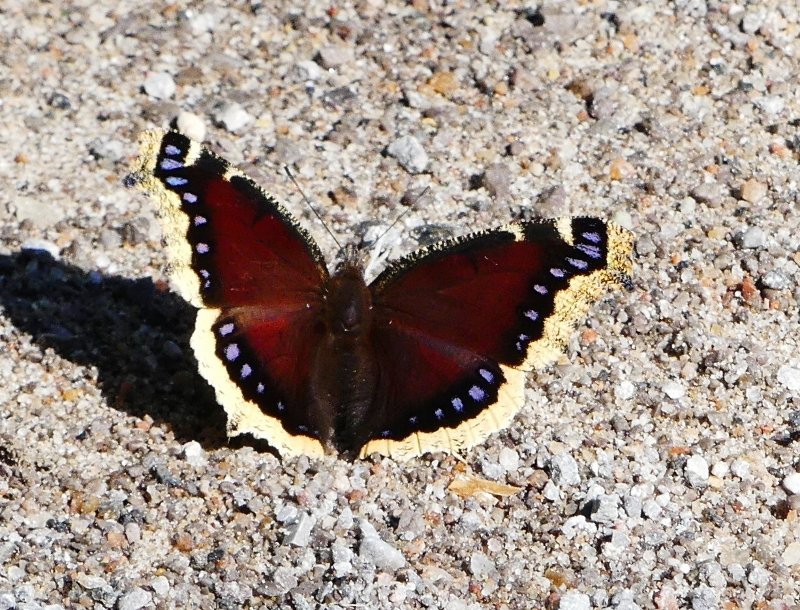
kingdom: Animalia
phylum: Arthropoda
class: Insecta
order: Lepidoptera
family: Nymphalidae
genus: Nymphalis
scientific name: Nymphalis antiopa
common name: Mourning Cloak
